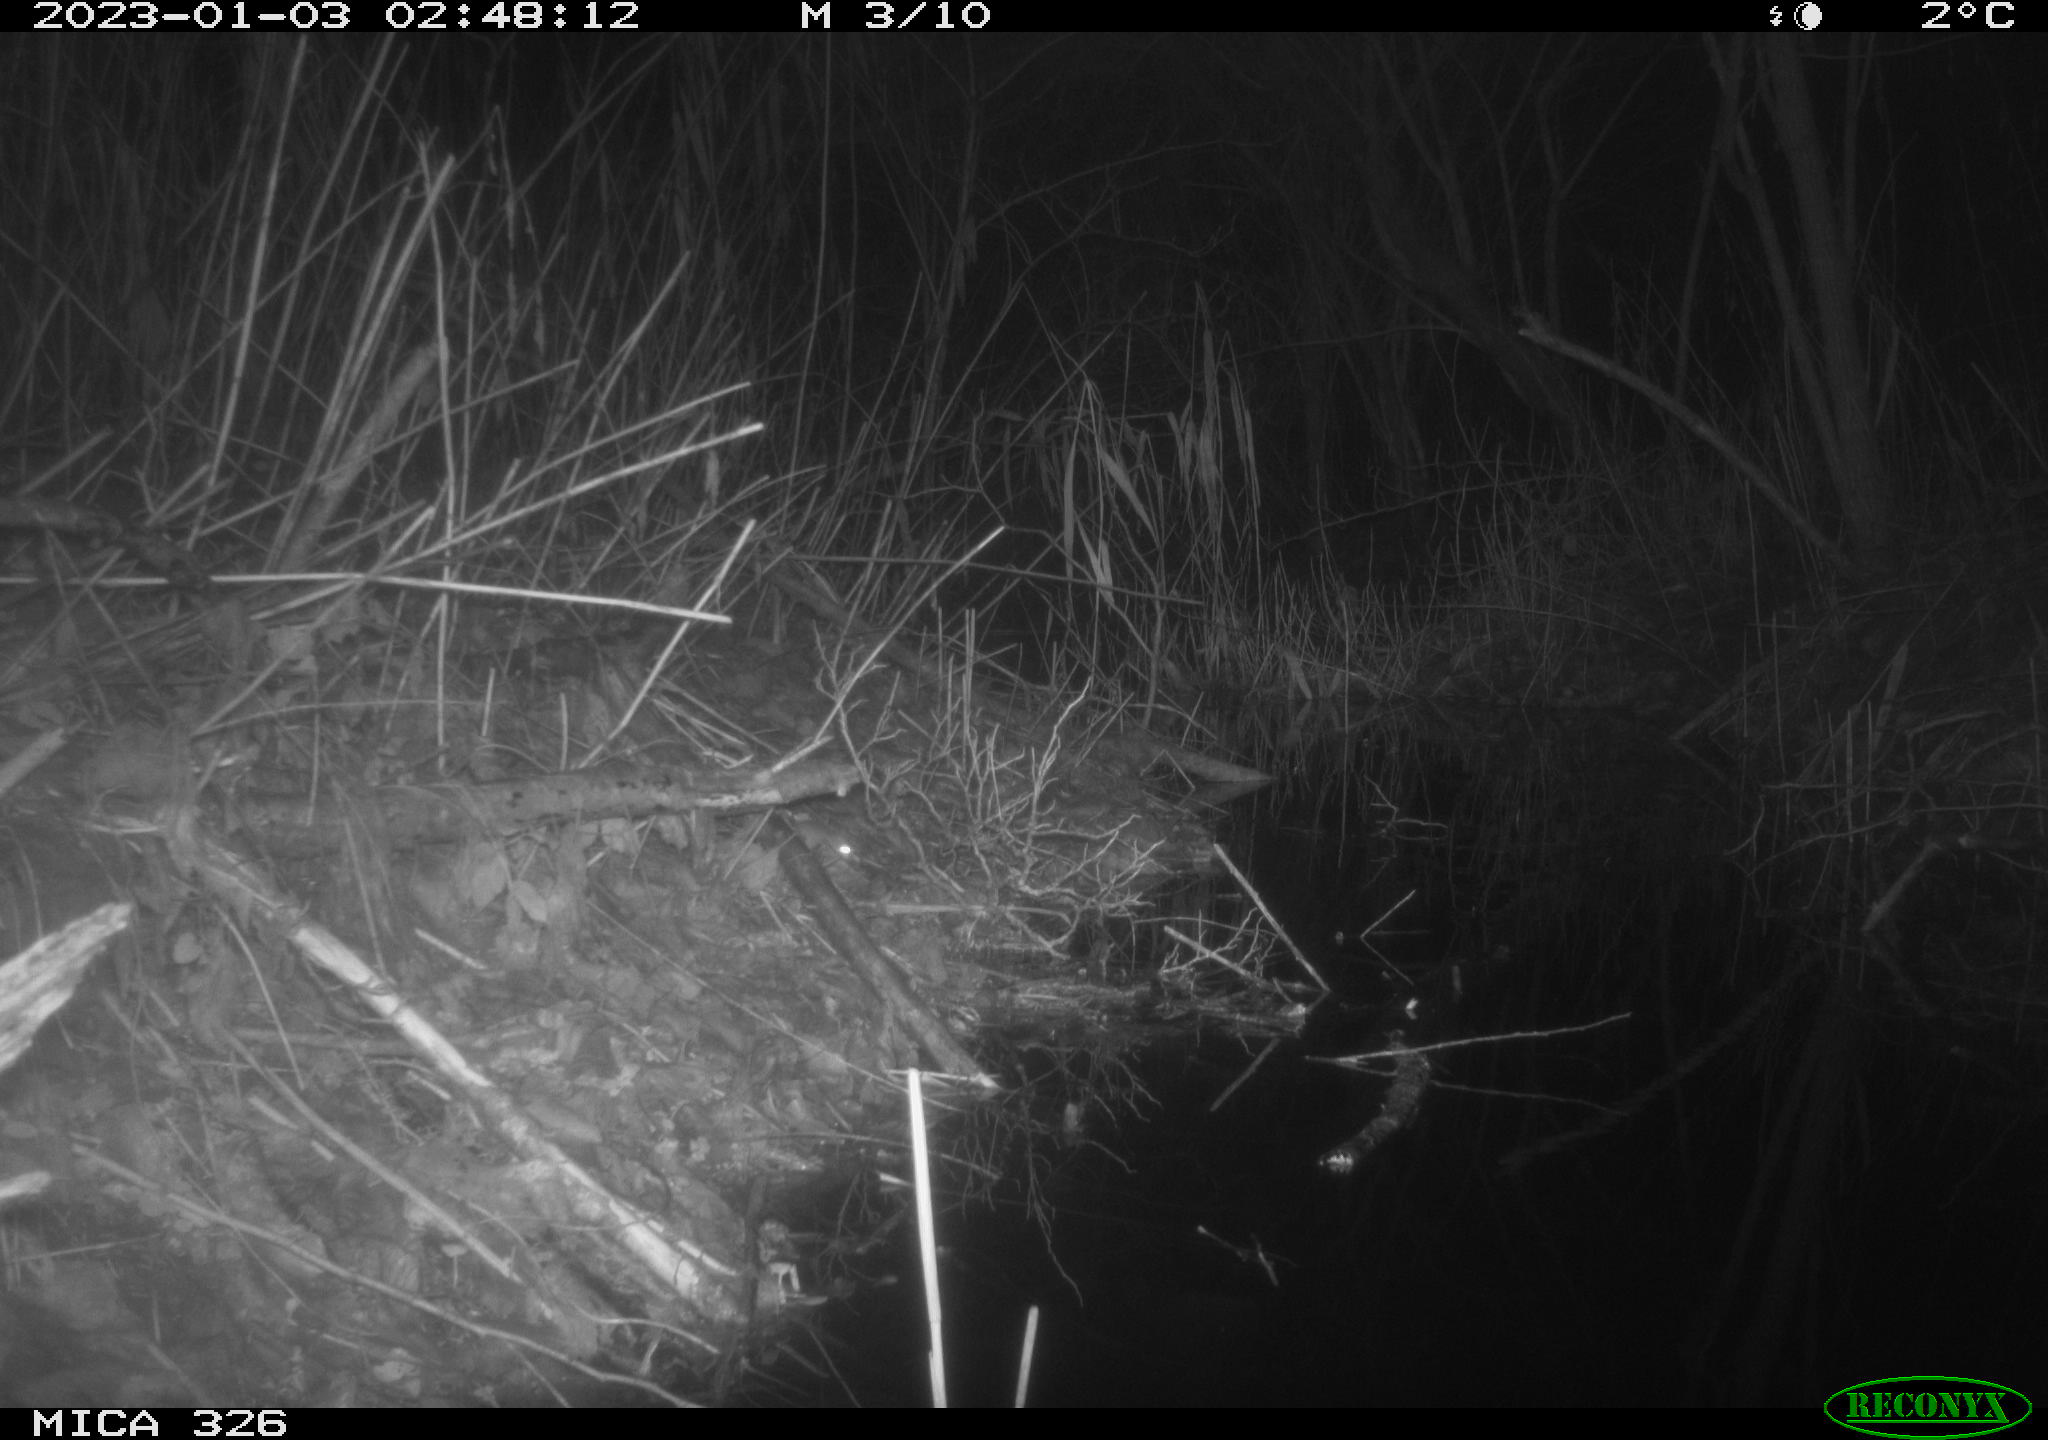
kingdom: Animalia
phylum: Chordata
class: Mammalia
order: Rodentia
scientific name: Rodentia
